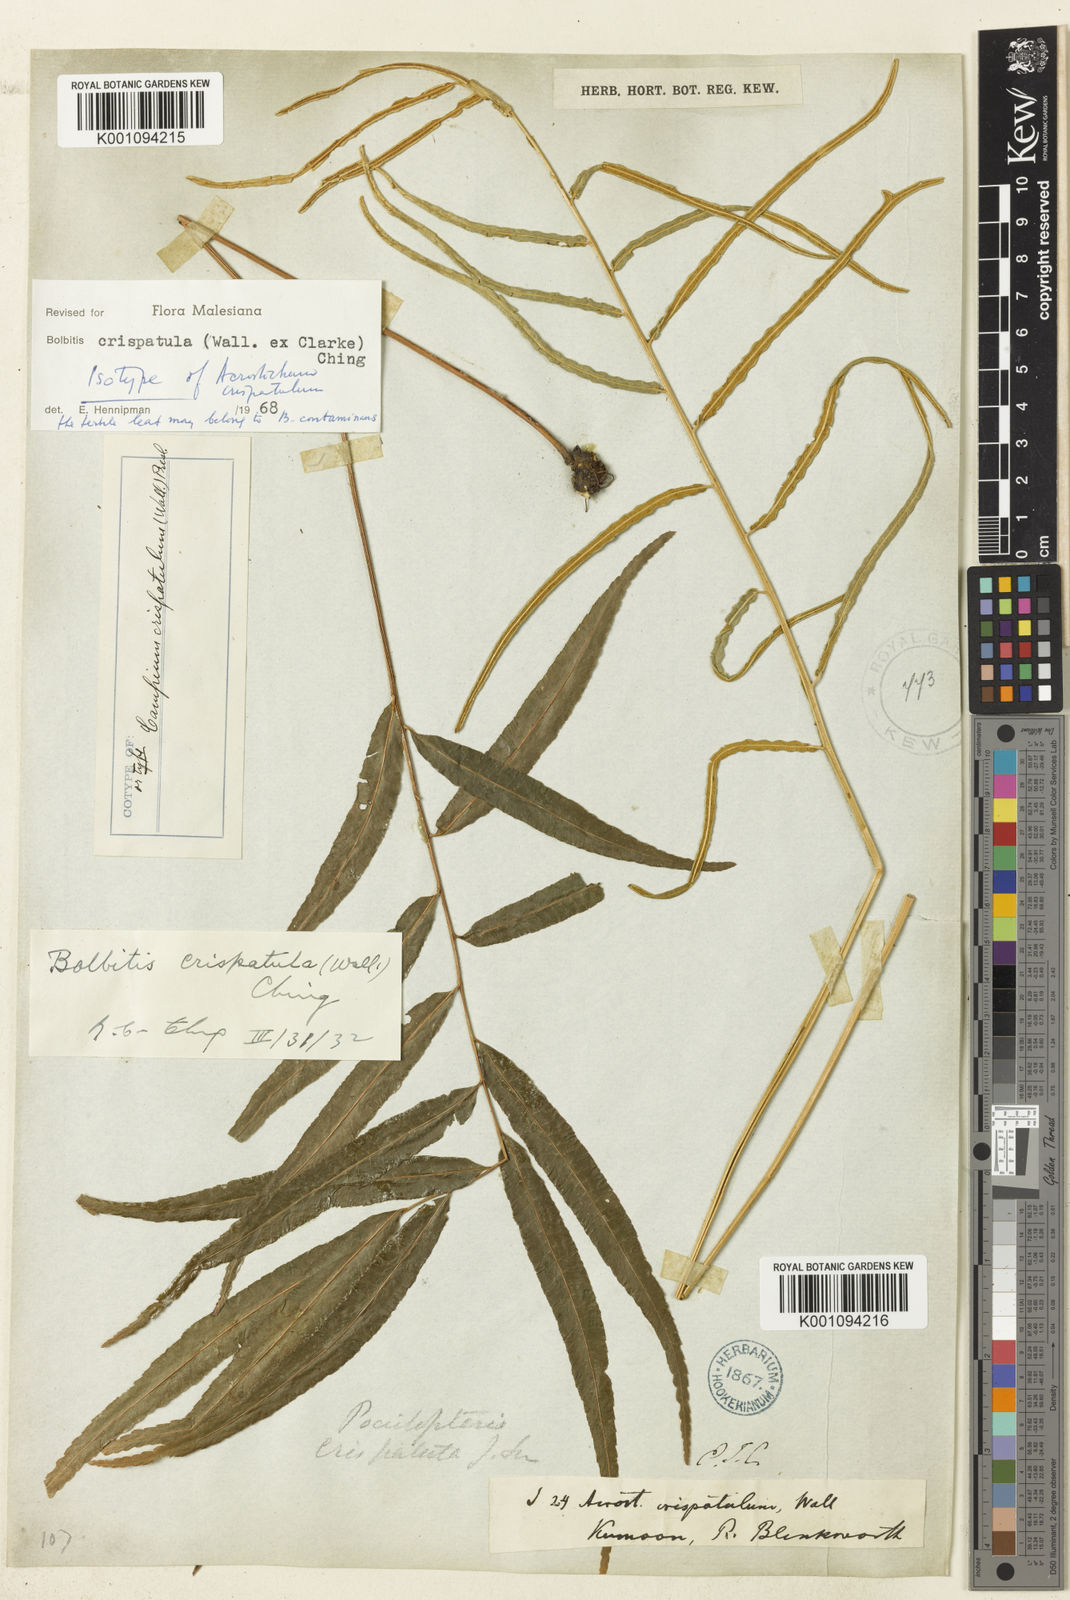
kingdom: Plantae
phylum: Tracheophyta
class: Polypodiopsida
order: Polypodiales
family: Dryopteridaceae
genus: Bolbitis
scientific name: Bolbitis crispatula
